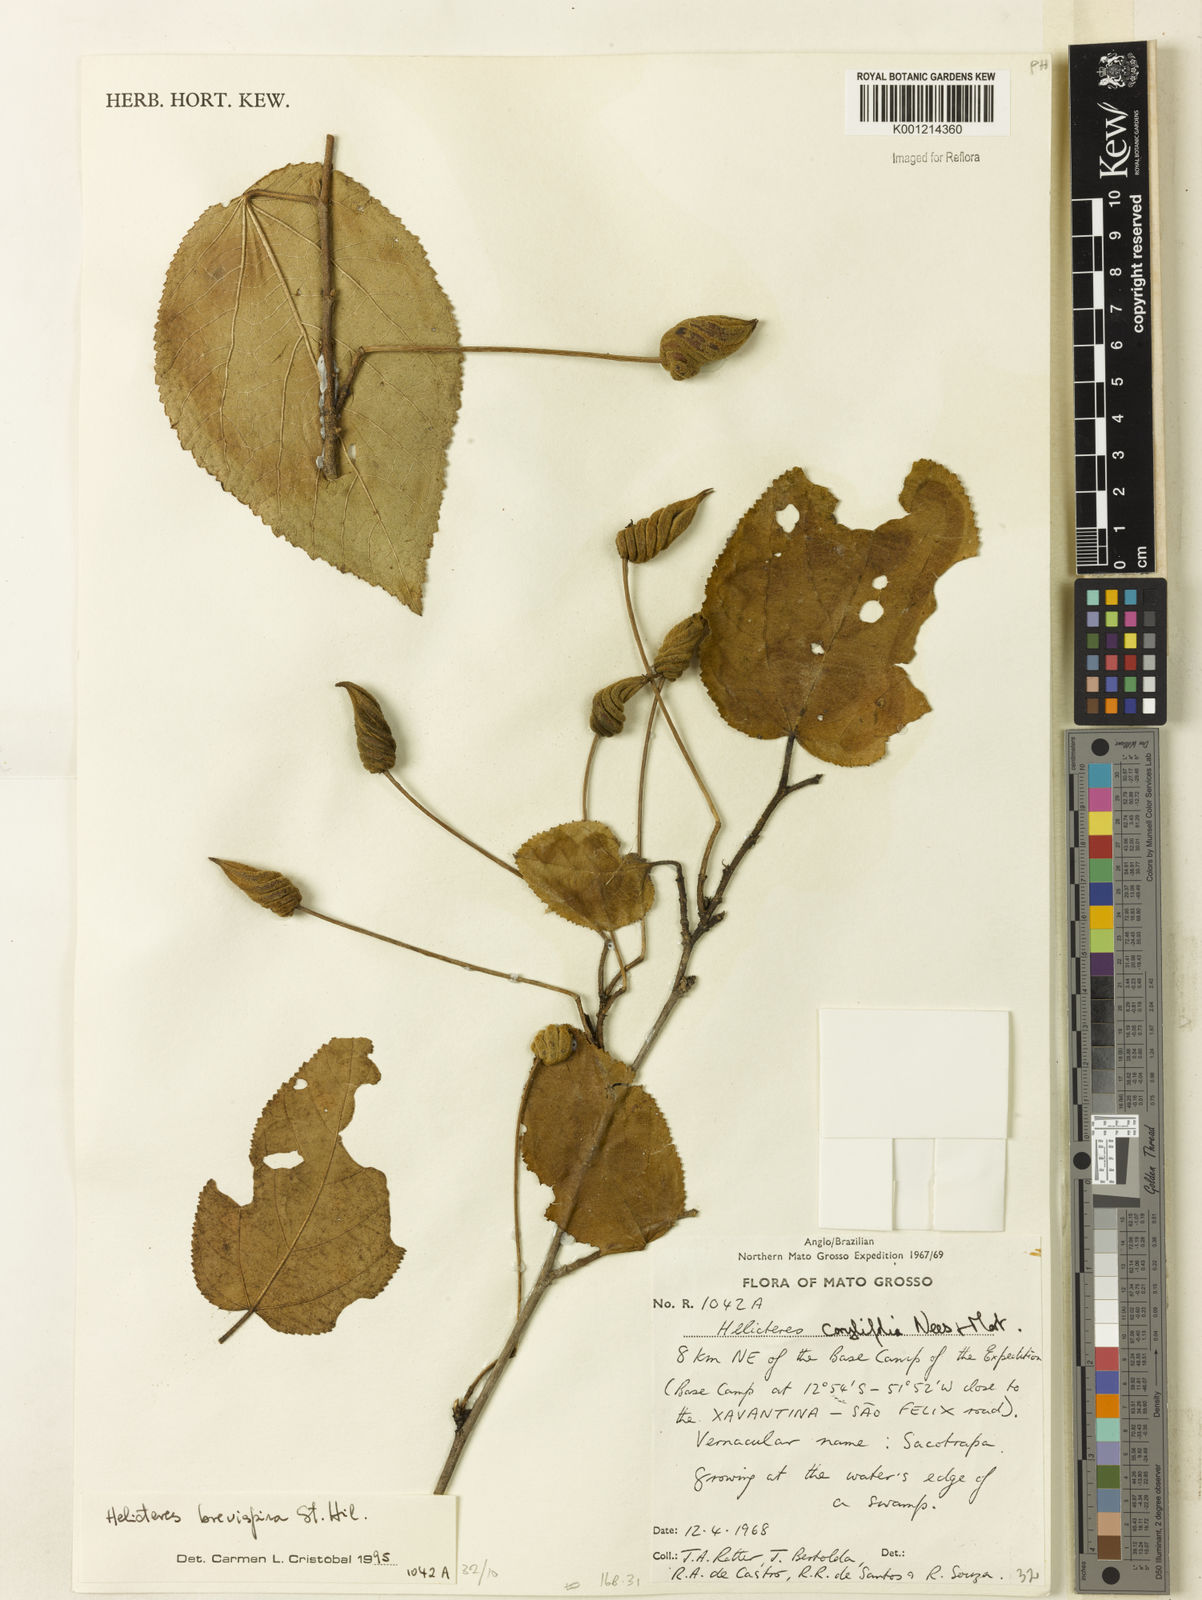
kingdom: Plantae
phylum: Tracheophyta
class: Magnoliopsida
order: Malvales
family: Malvaceae
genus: Helicteres
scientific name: Helicteres
